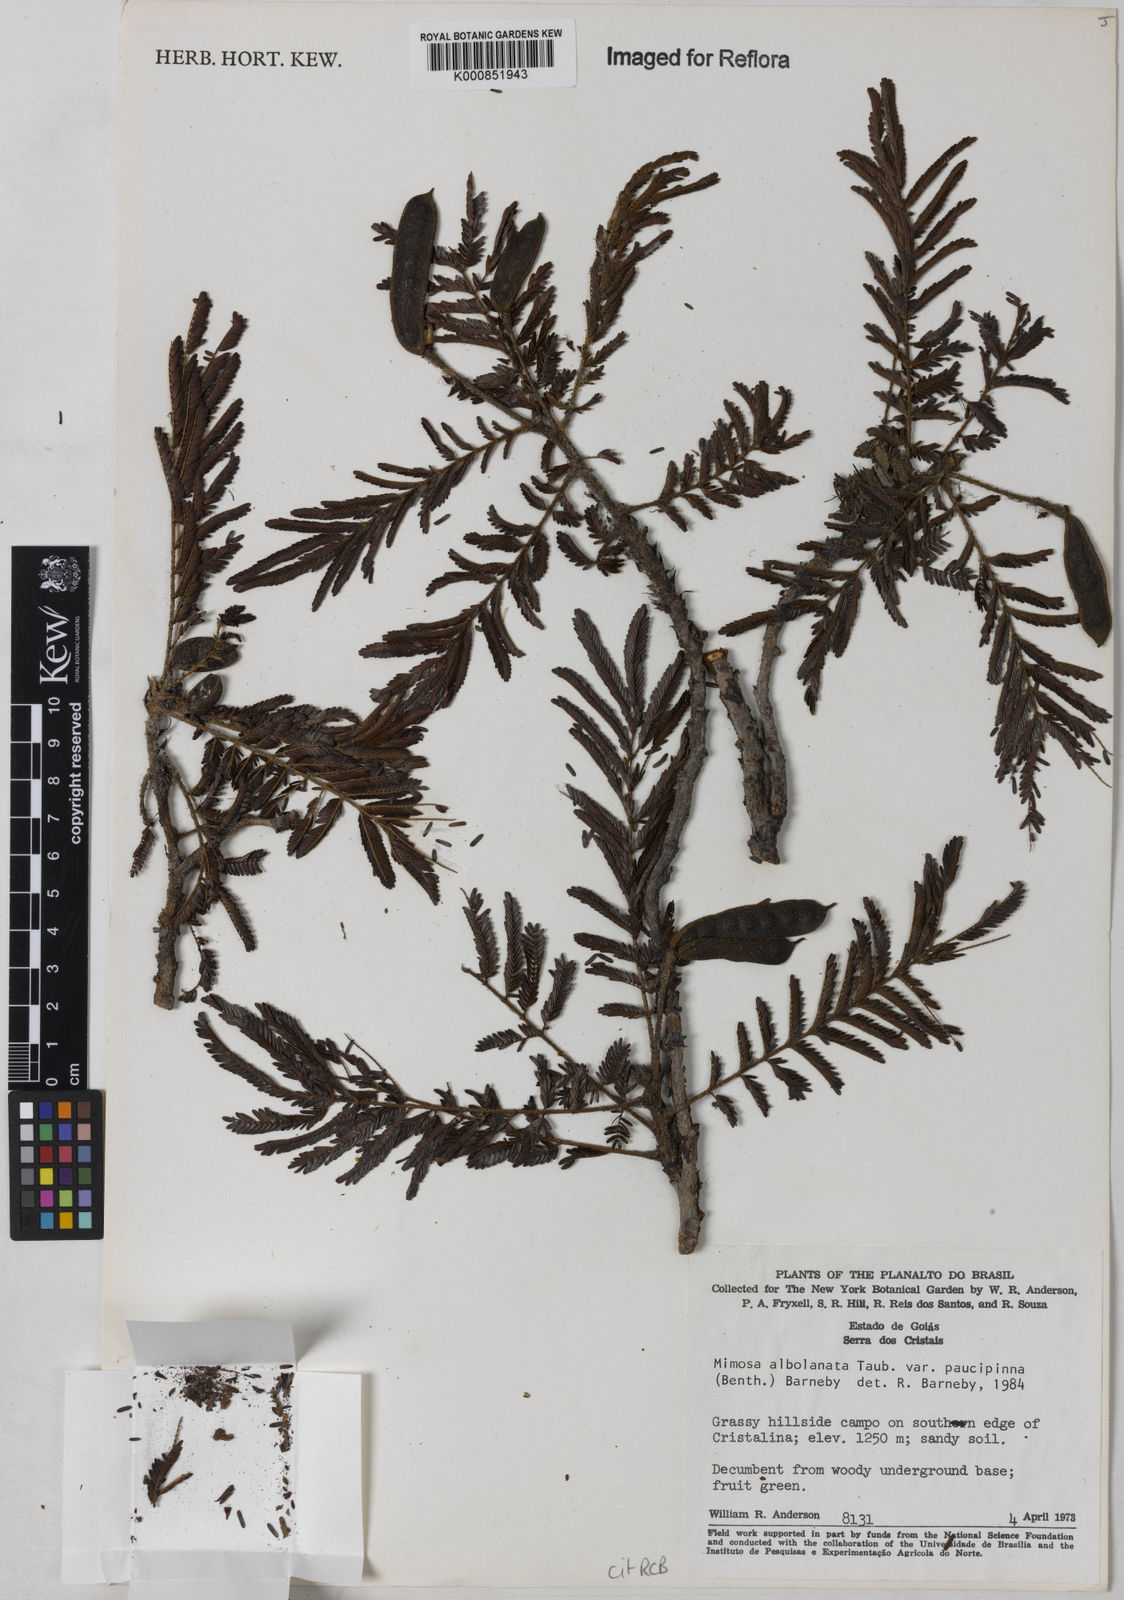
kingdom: Plantae
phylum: Tracheophyta
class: Magnoliopsida
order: Fabales
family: Fabaceae
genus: Mimosa
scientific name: Mimosa albolanata
